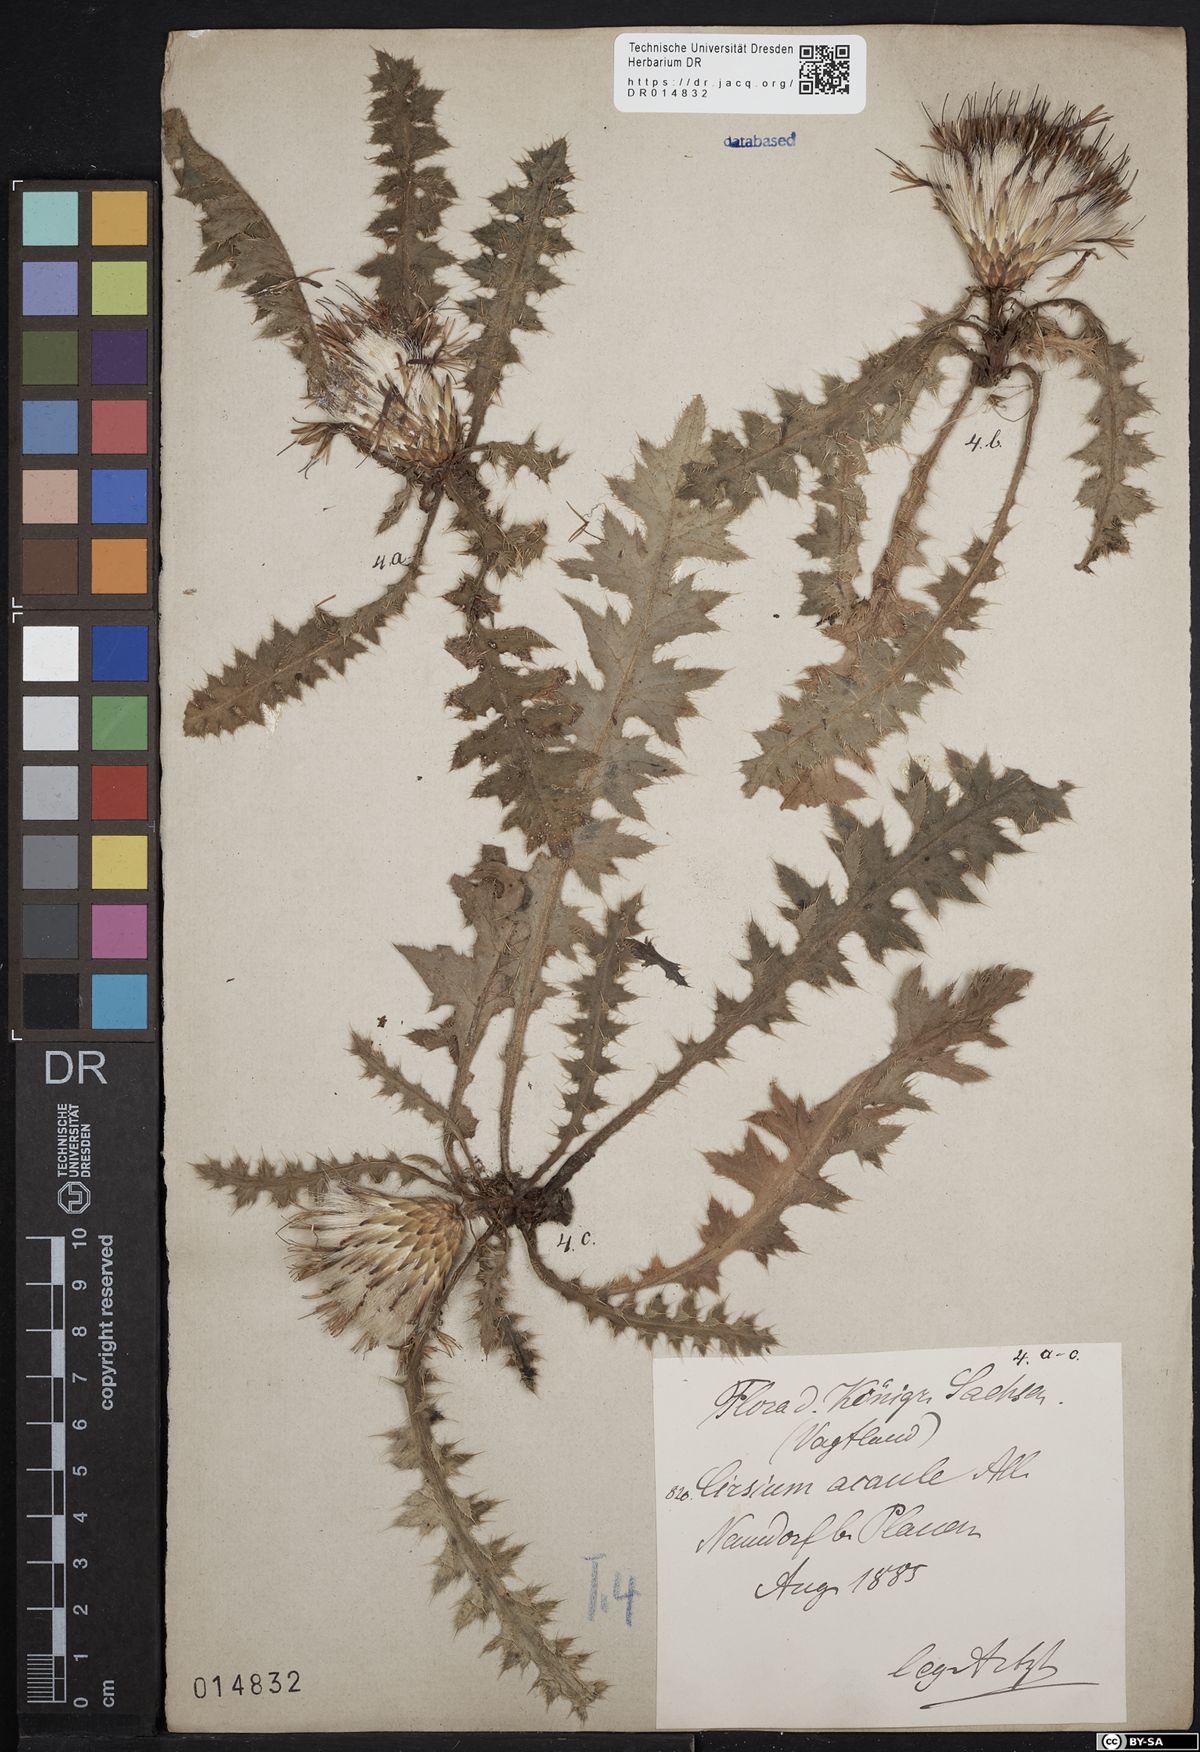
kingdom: Plantae
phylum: Tracheophyta
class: Magnoliopsida
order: Asterales
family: Asteraceae
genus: Cirsium
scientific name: Cirsium acaule
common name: Dwarf thistle
